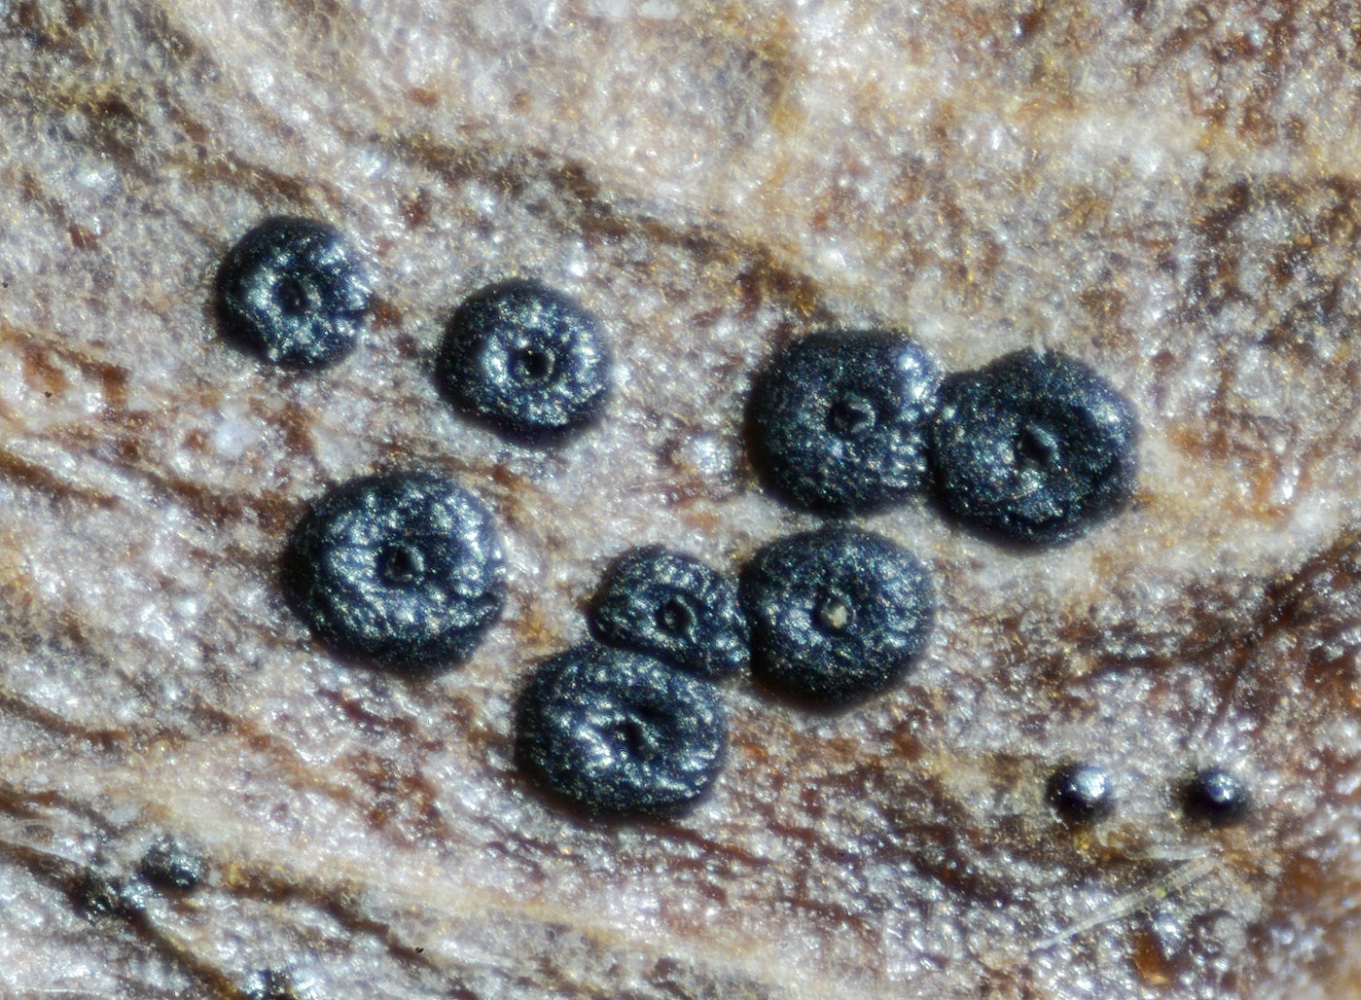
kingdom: Fungi
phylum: Ascomycota
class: Sordariomycetes
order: Amphisphaeriales
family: Discosiaceae
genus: Discosia
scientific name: Discosia artocreas
